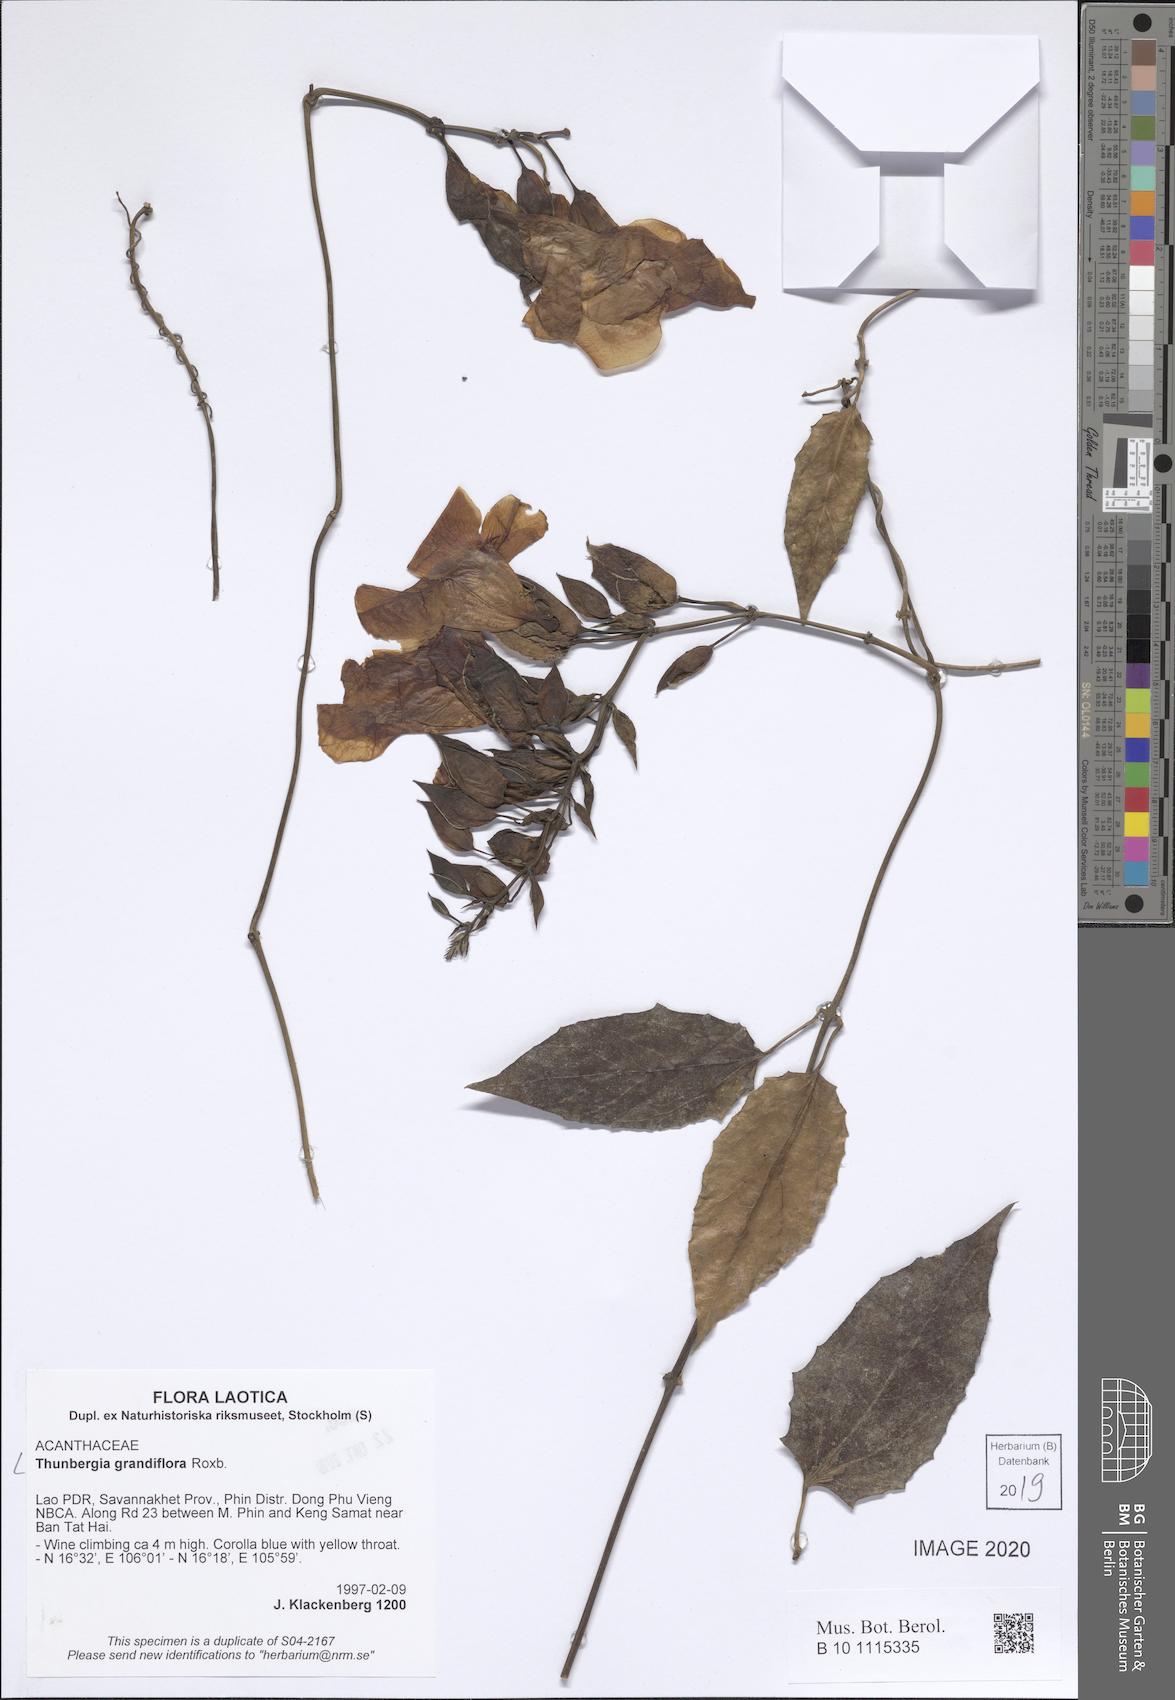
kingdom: Plantae
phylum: Tracheophyta
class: Magnoliopsida
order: Lamiales
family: Acanthaceae
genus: Thunbergia
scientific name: Thunbergia grandiflora
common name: Bengal trumpet
